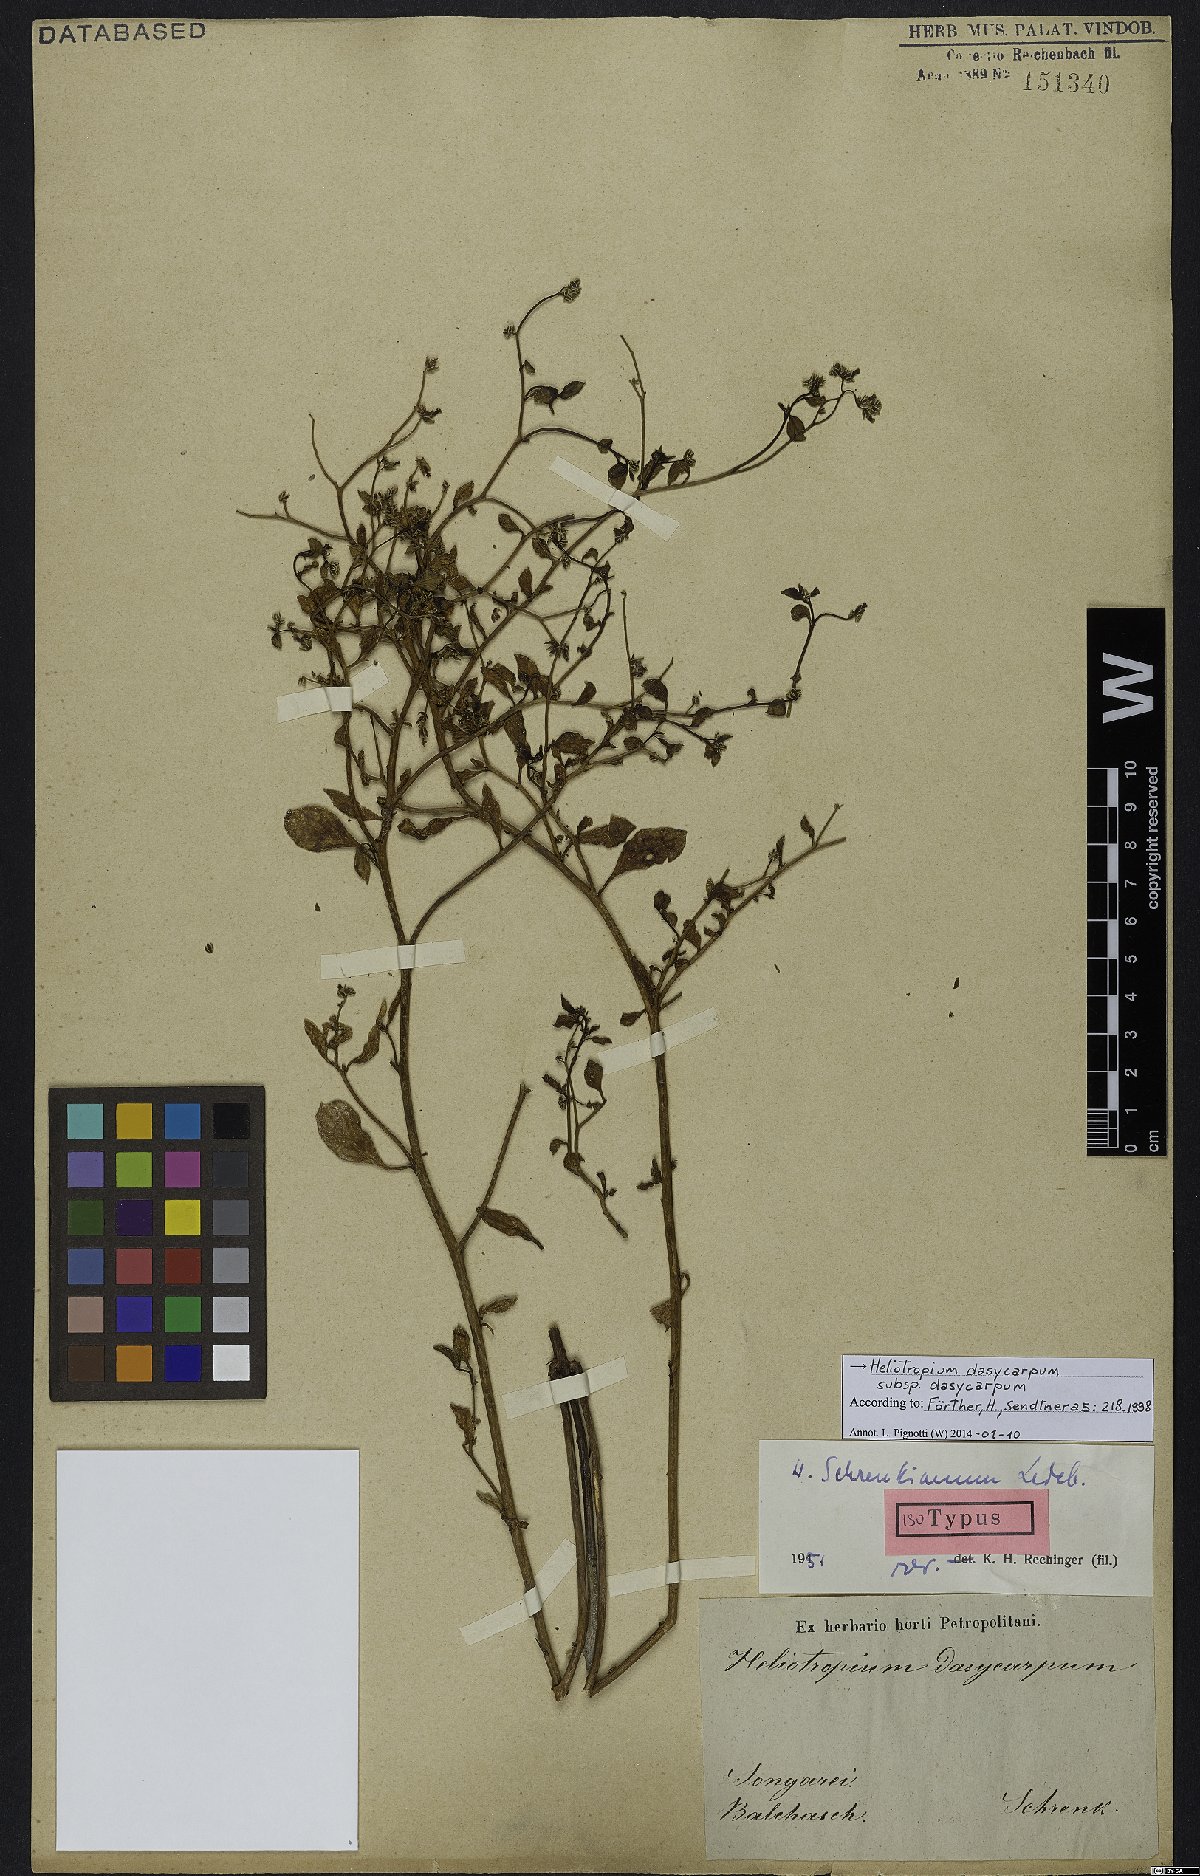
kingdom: Plantae
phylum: Tracheophyta
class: Magnoliopsida
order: Boraginales
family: Heliotropiaceae
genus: Heliotropium
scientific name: Heliotropium dasycarpum
